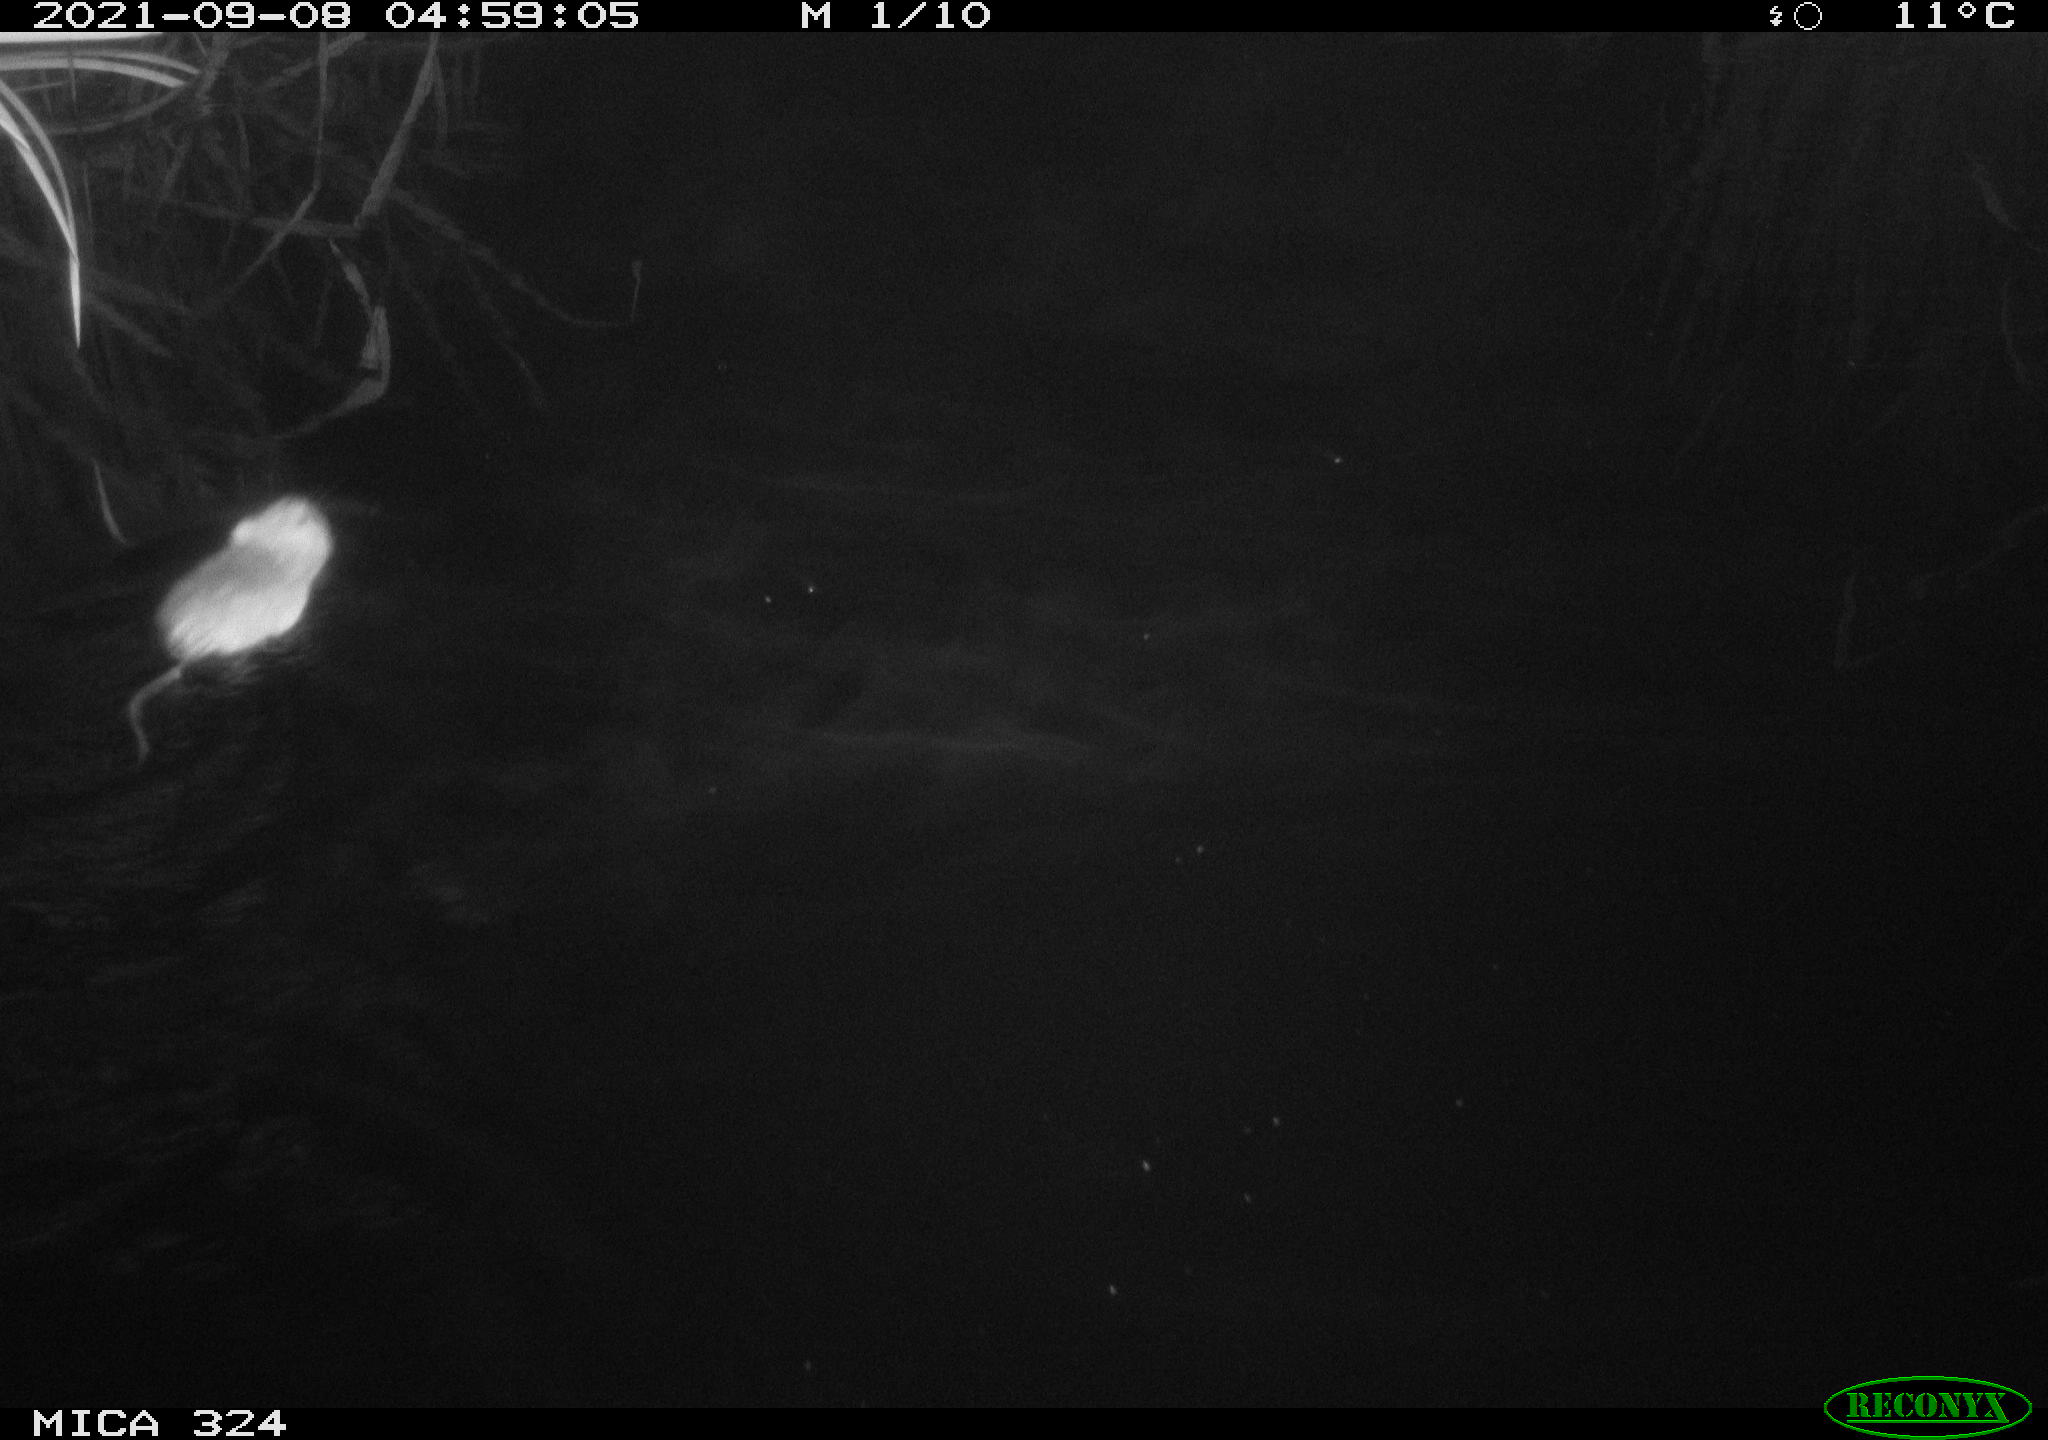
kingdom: Animalia
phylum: Chordata
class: Mammalia
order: Rodentia
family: Cricetidae
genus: Ondatra
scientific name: Ondatra zibethicus
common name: Muskrat
